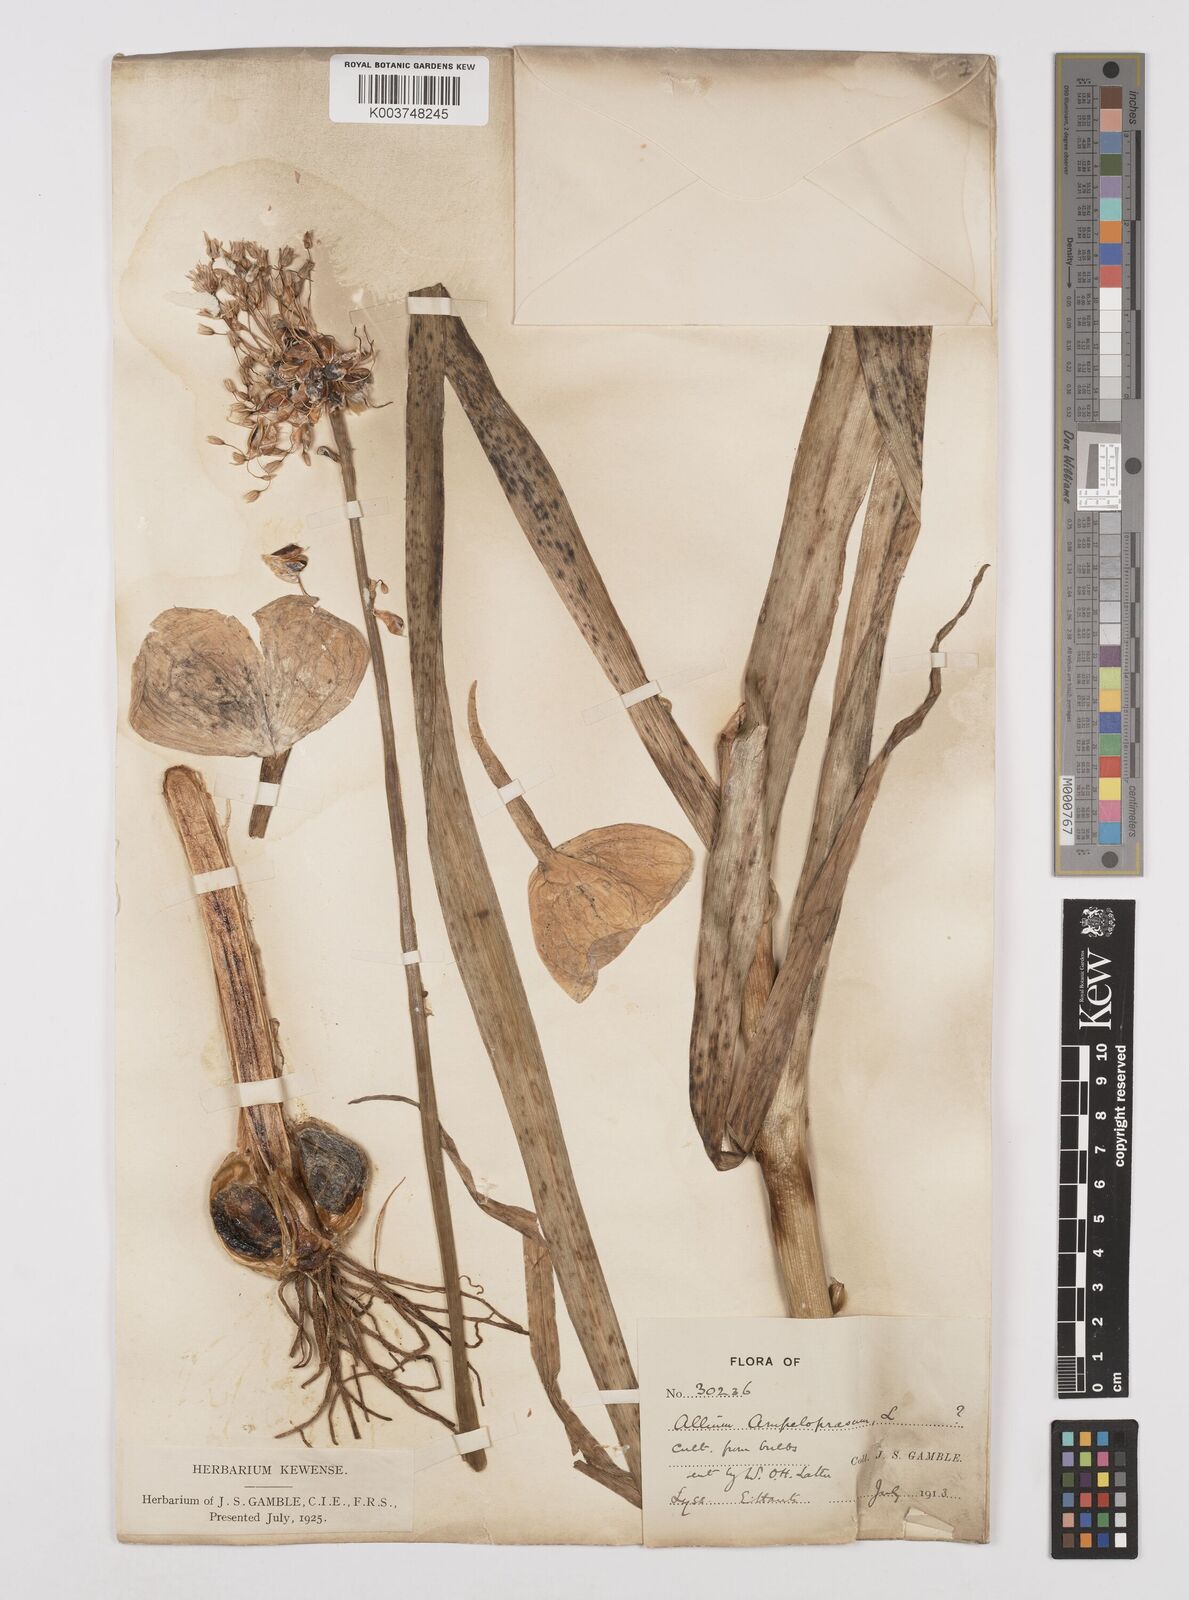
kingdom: Plantae
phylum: Tracheophyta
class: Liliopsida
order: Asparagales
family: Amaryllidaceae
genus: Allium
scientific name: Allium ampeloprasum
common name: Wild leek
